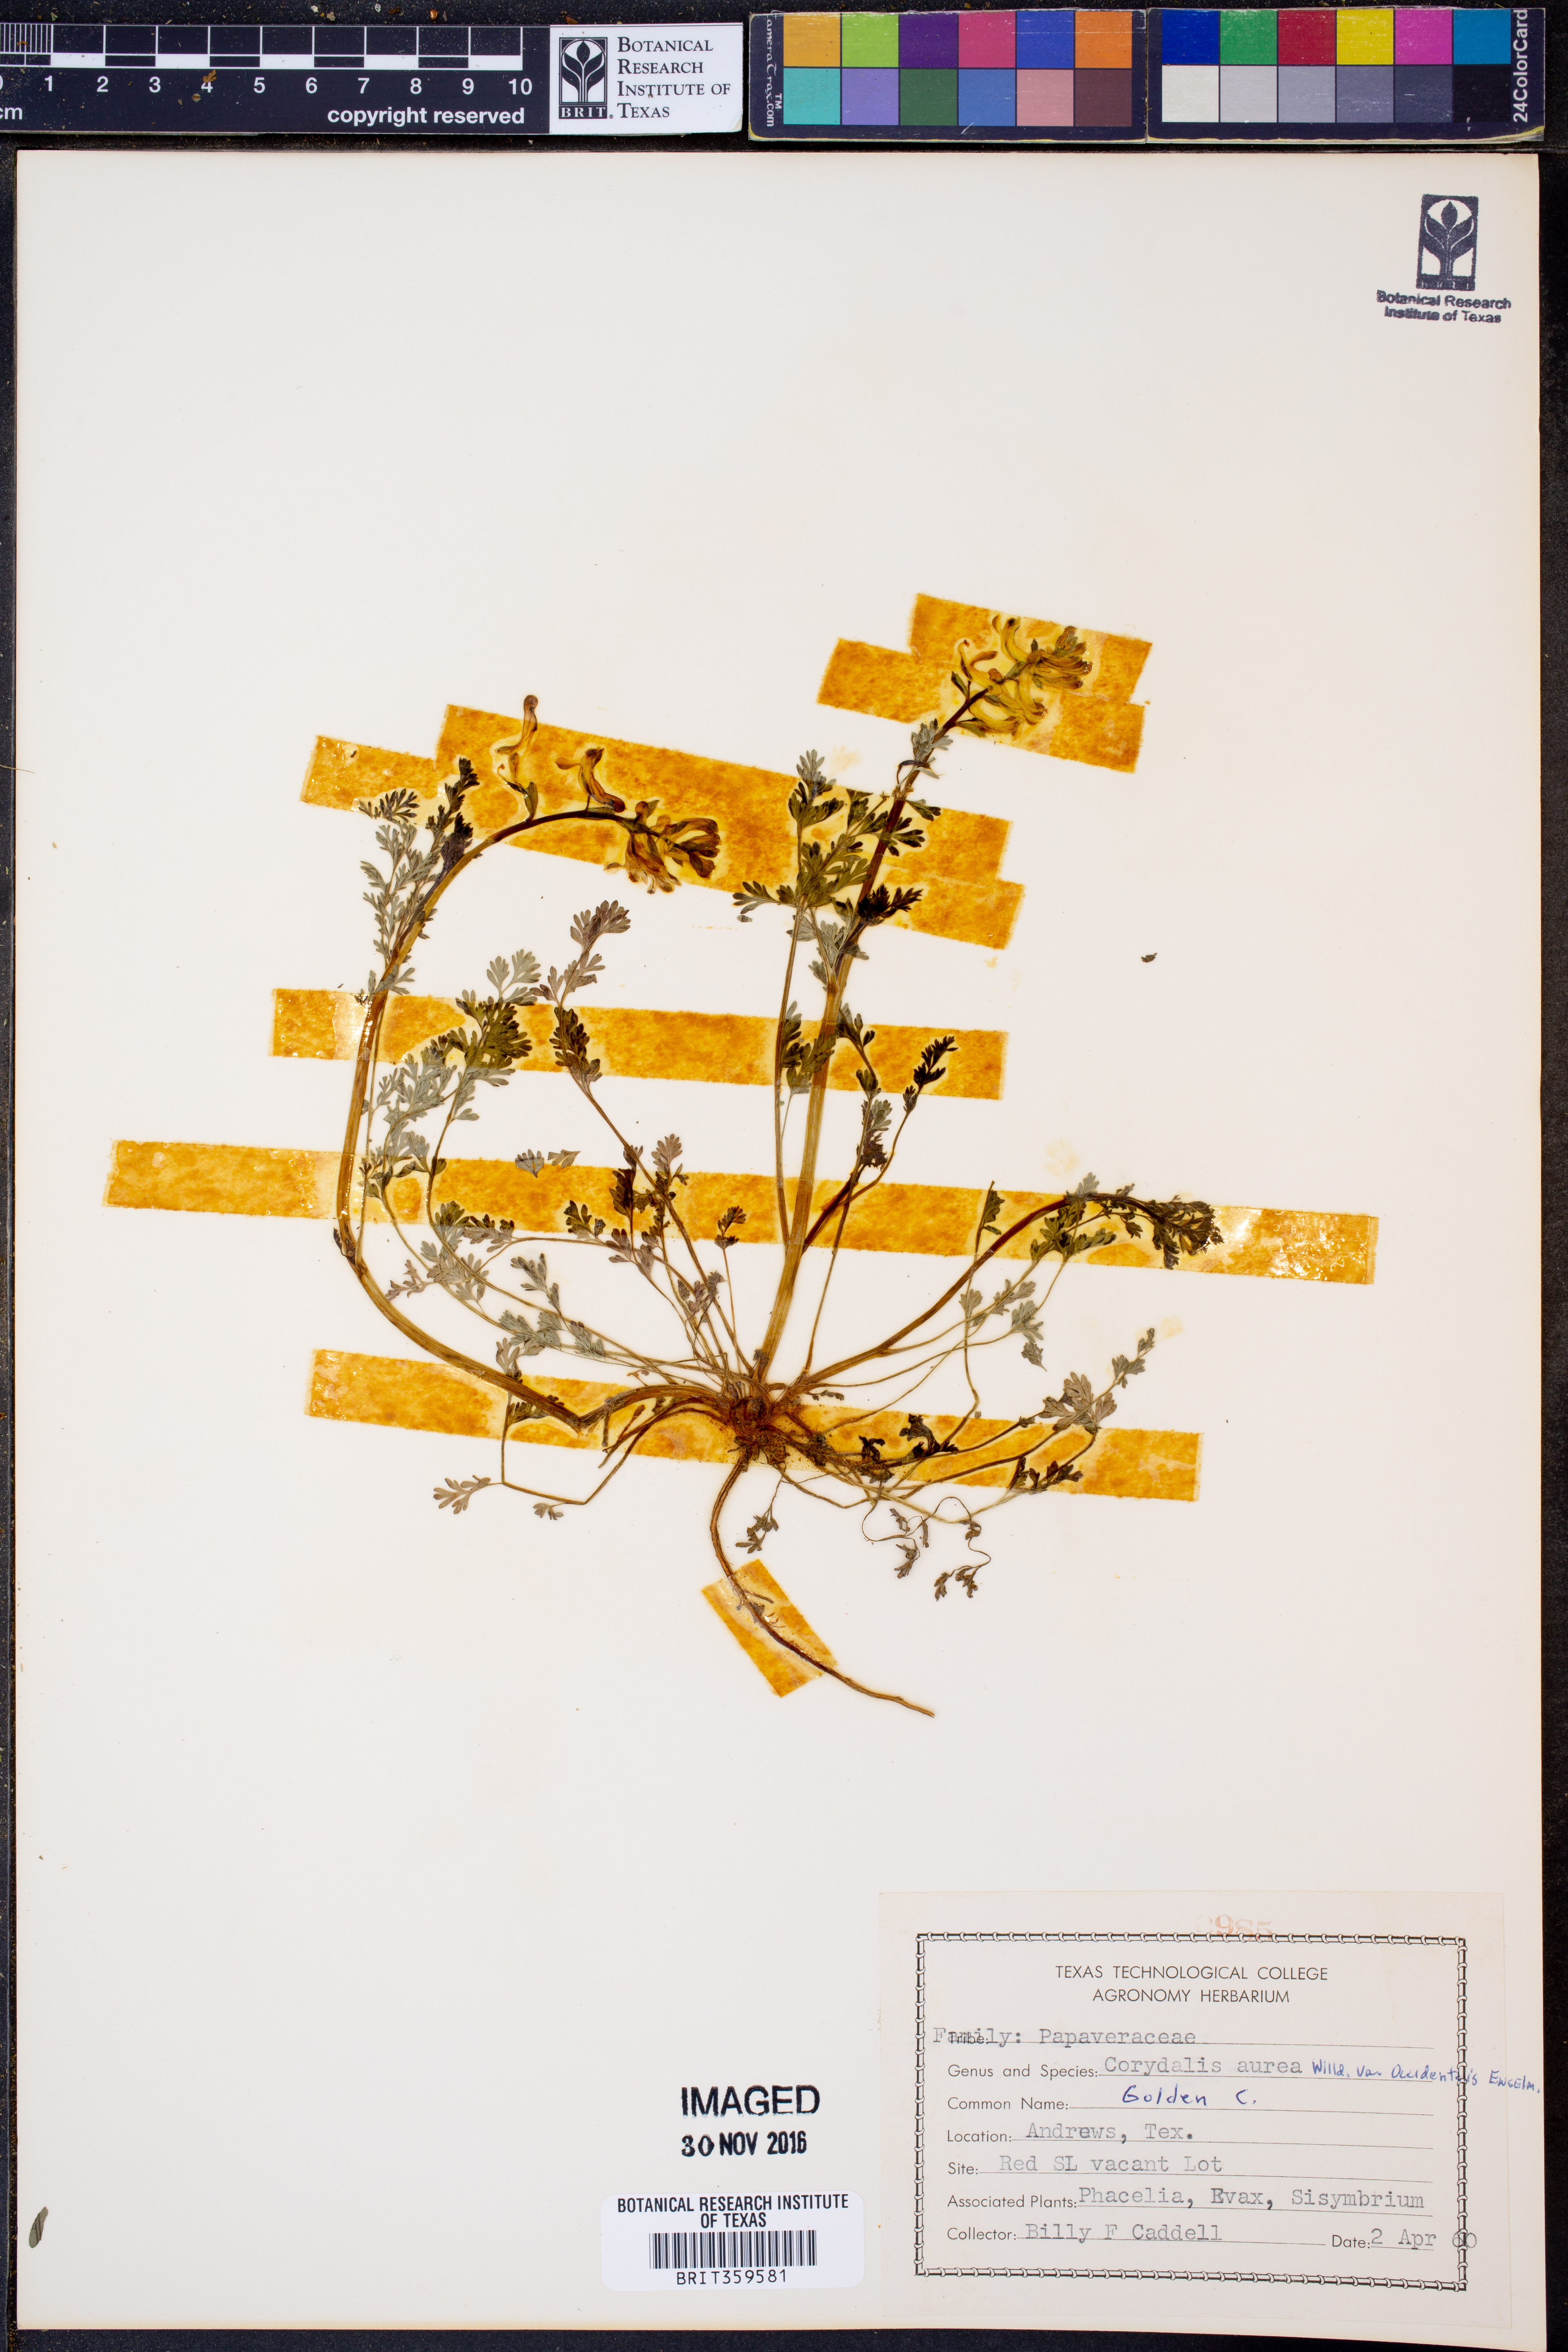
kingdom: Plantae
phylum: Tracheophyta
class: Magnoliopsida
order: Ranunculales
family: Papaveraceae
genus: Corydalis
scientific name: Corydalis curvisiliqua
